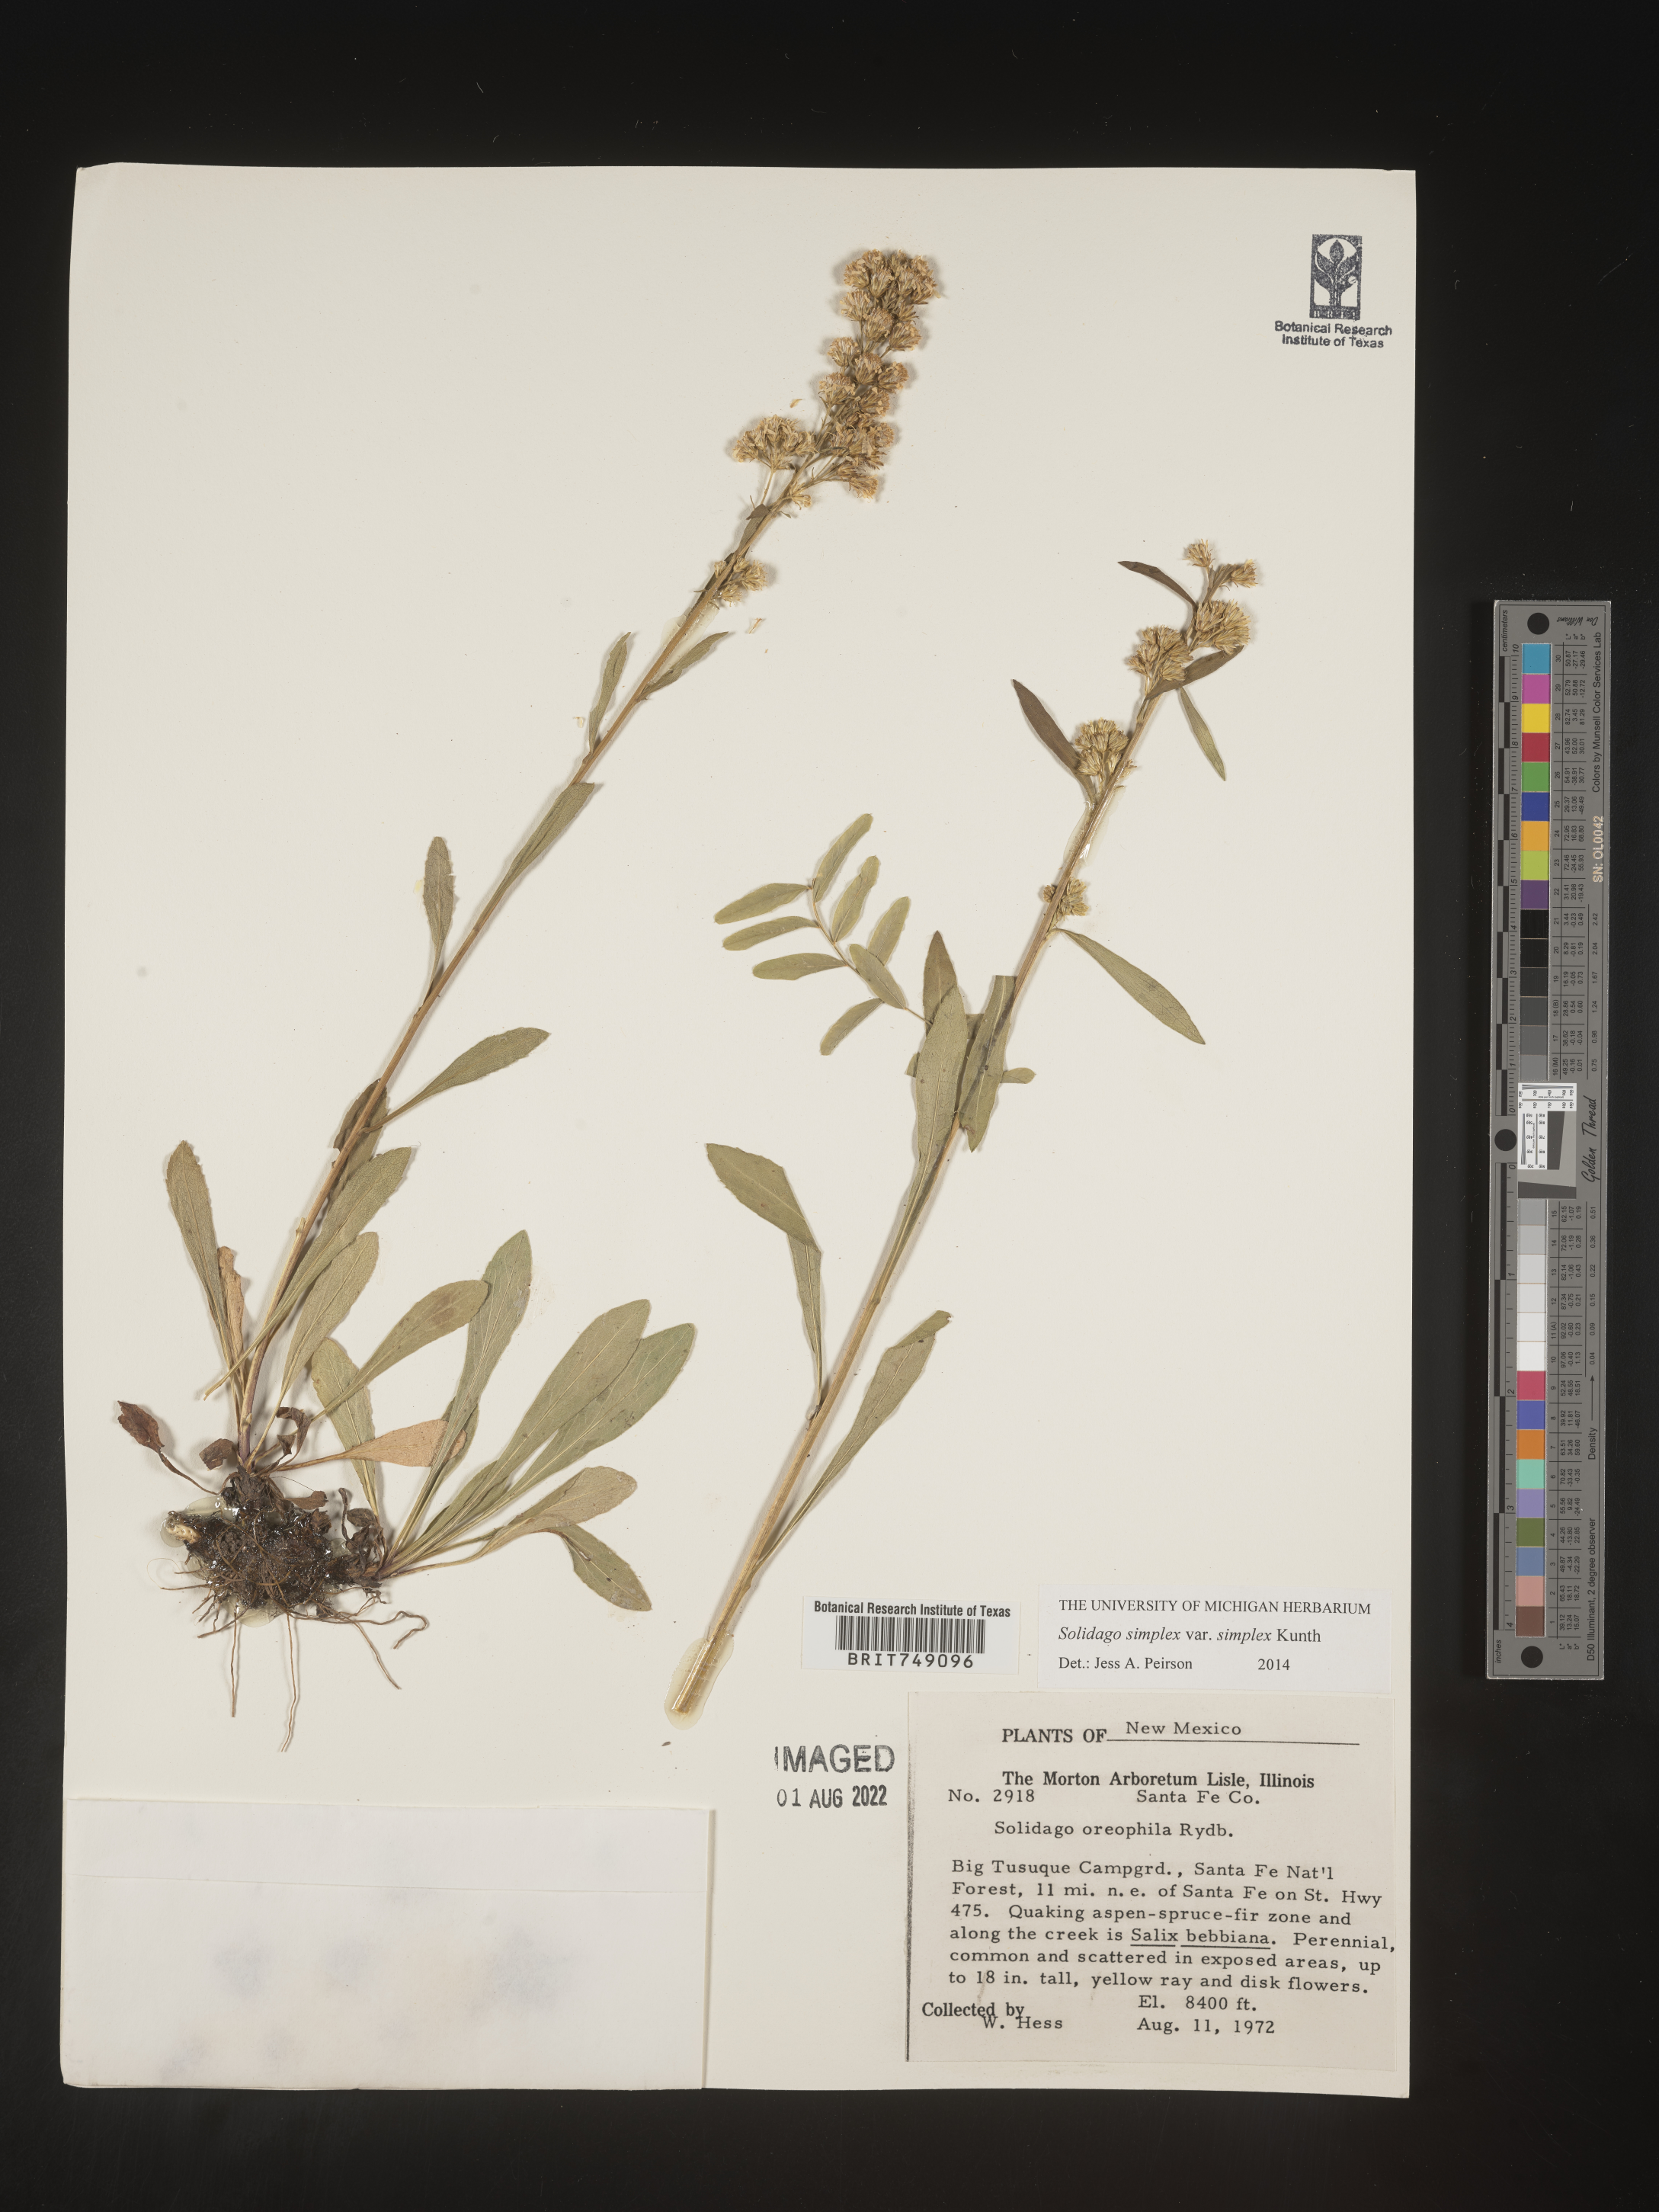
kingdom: Plantae
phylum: Tracheophyta
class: Magnoliopsida
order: Asterales
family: Asteraceae
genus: Solidago
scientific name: Solidago simplex
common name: Sticky goldenrod
